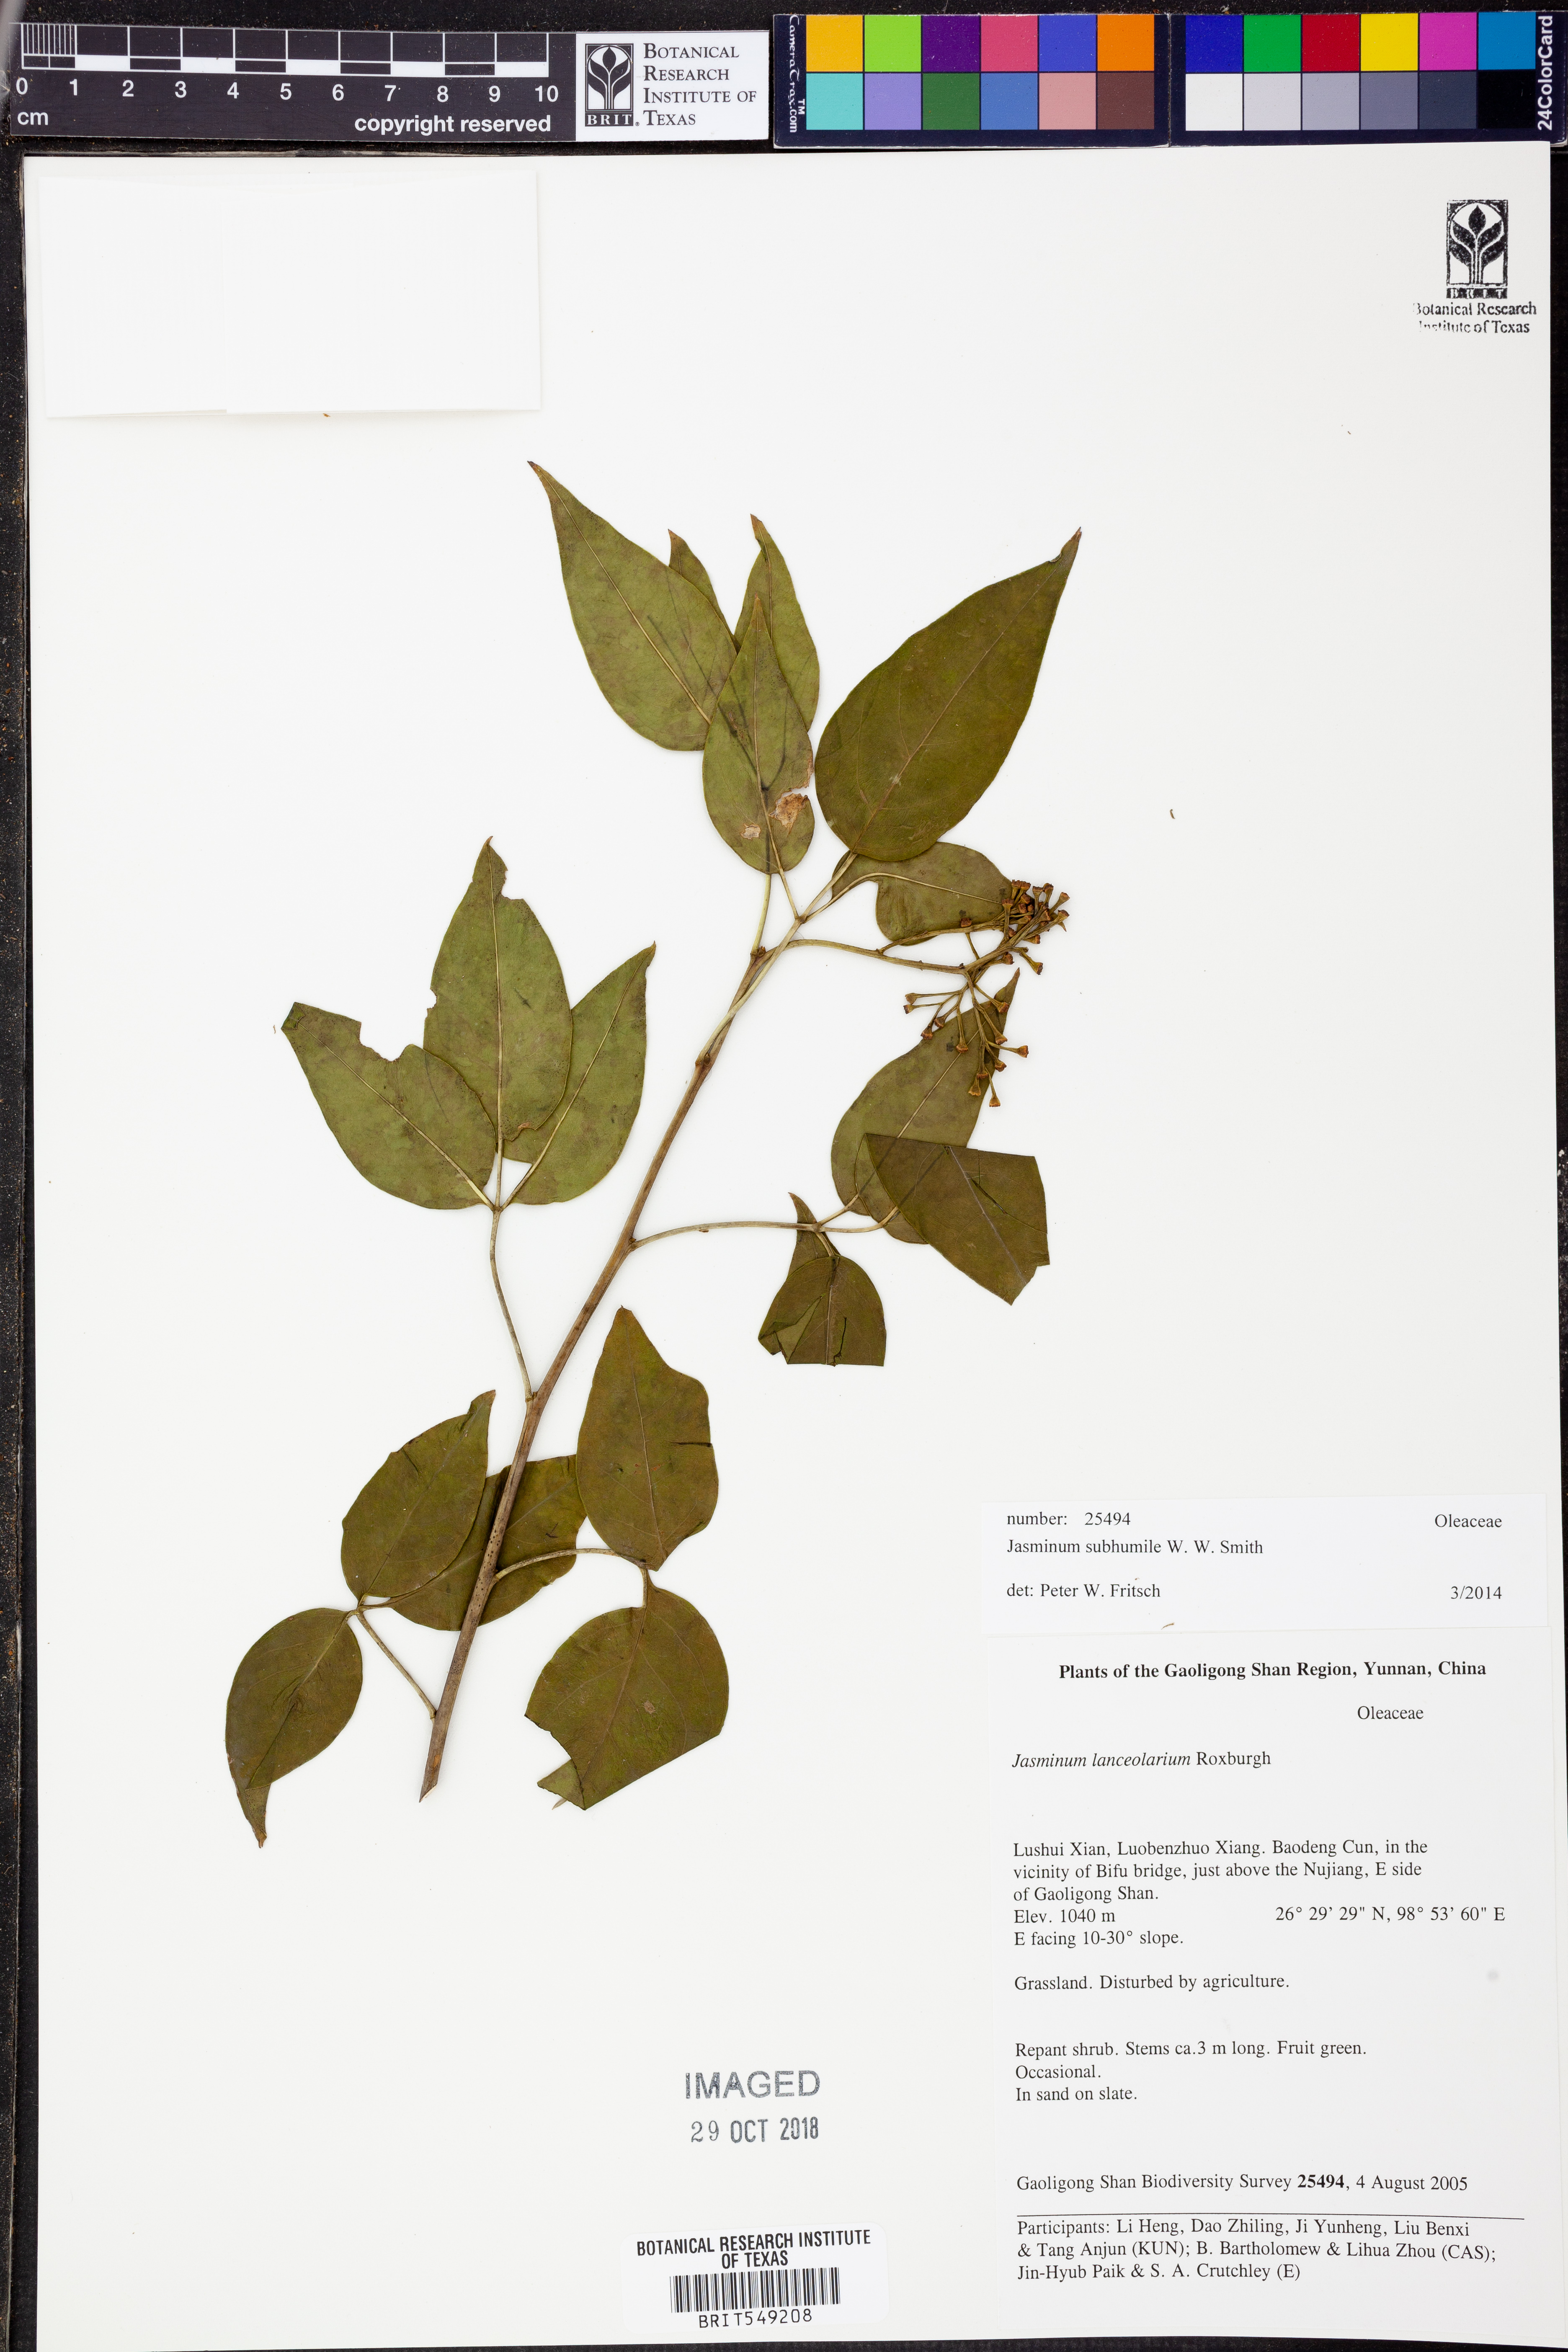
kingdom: Plantae
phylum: Tracheophyta
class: Magnoliopsida
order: Lamiales
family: Oleaceae
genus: Chrysojasminum
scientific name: Chrysojasminum subhumile
